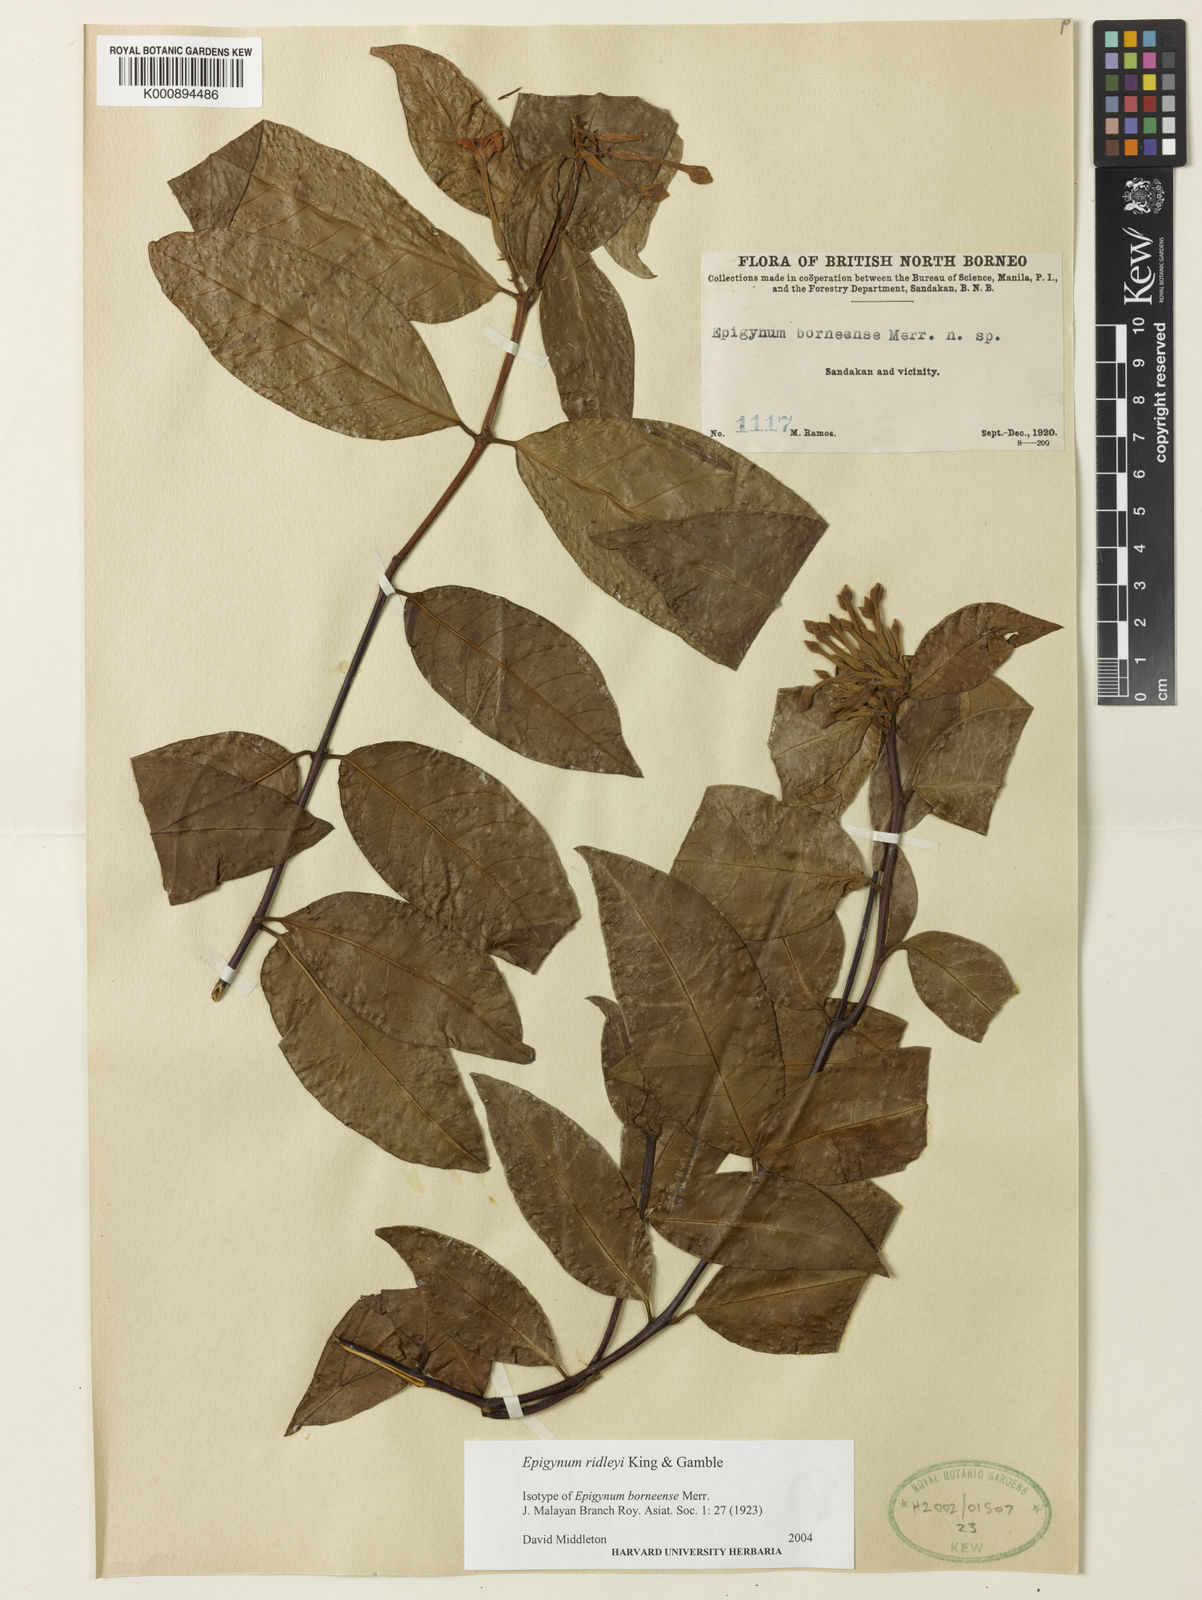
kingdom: Plantae
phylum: Tracheophyta
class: Magnoliopsida
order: Gentianales
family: Apocynaceae
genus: Epigynum
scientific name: Epigynum ridleyi
